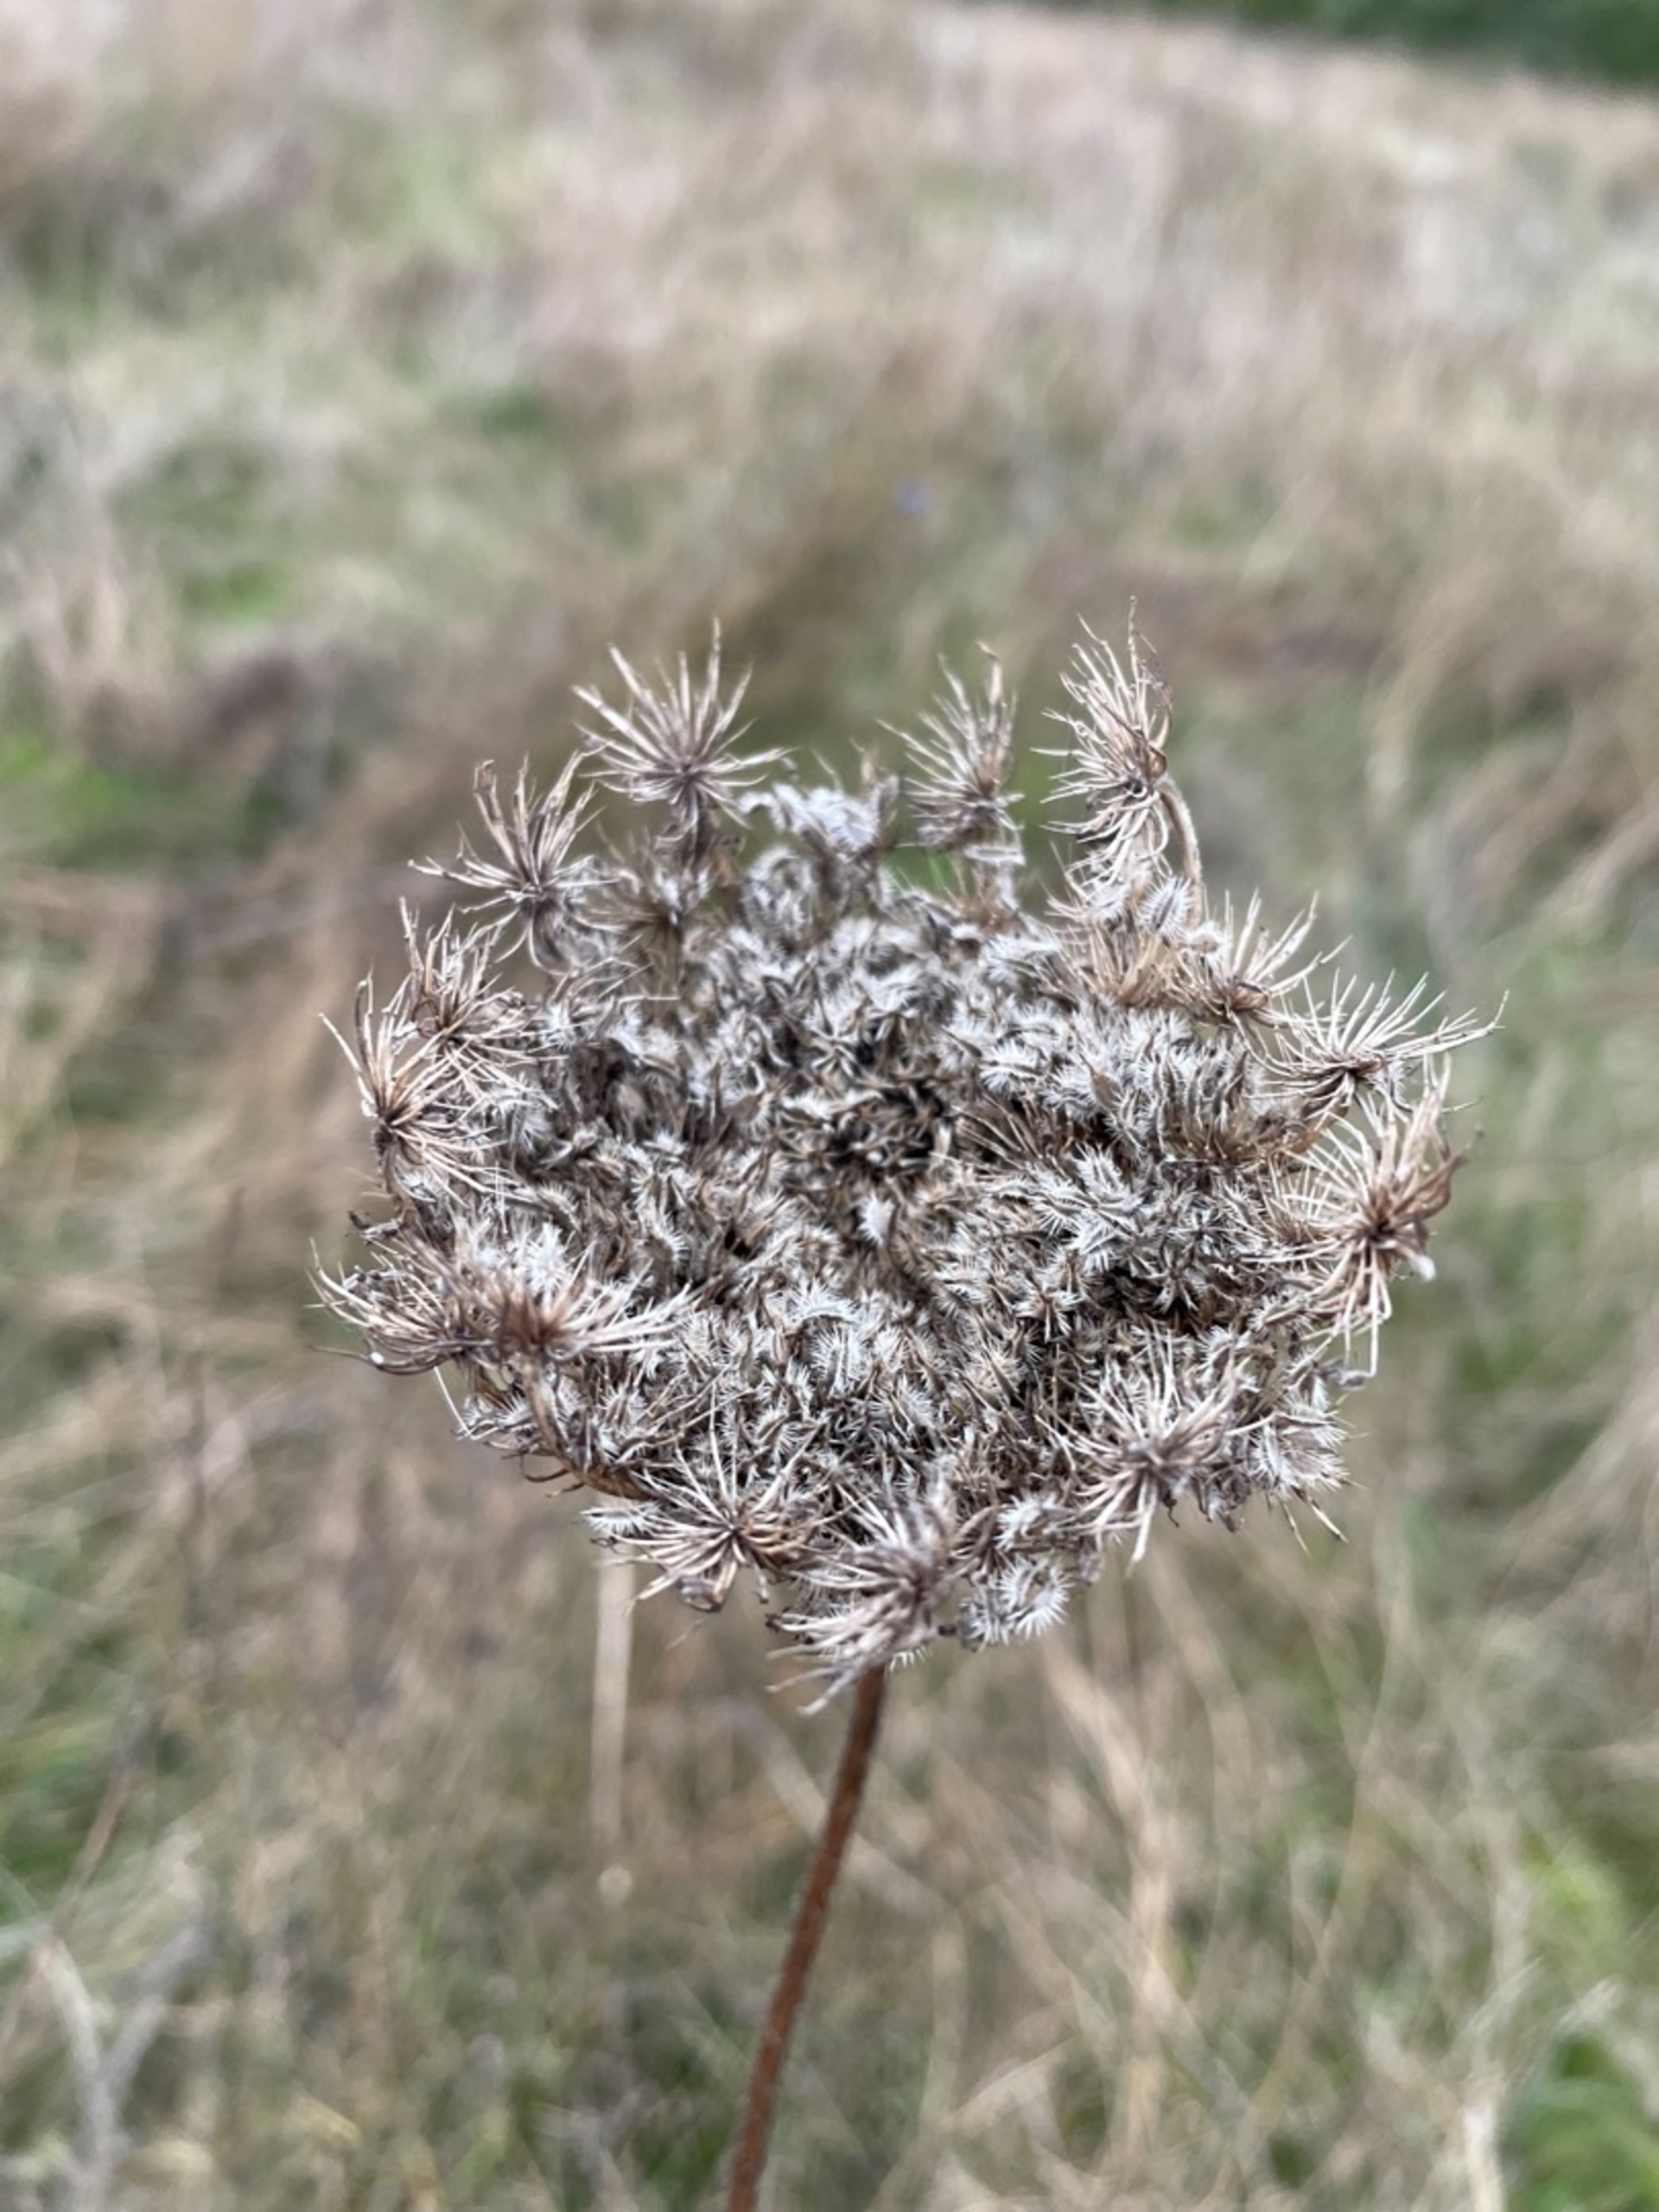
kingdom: Plantae
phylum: Tracheophyta
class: Magnoliopsida
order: Apiales
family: Apiaceae
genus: Daucus
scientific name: Daucus carota
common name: Vild gulerod
